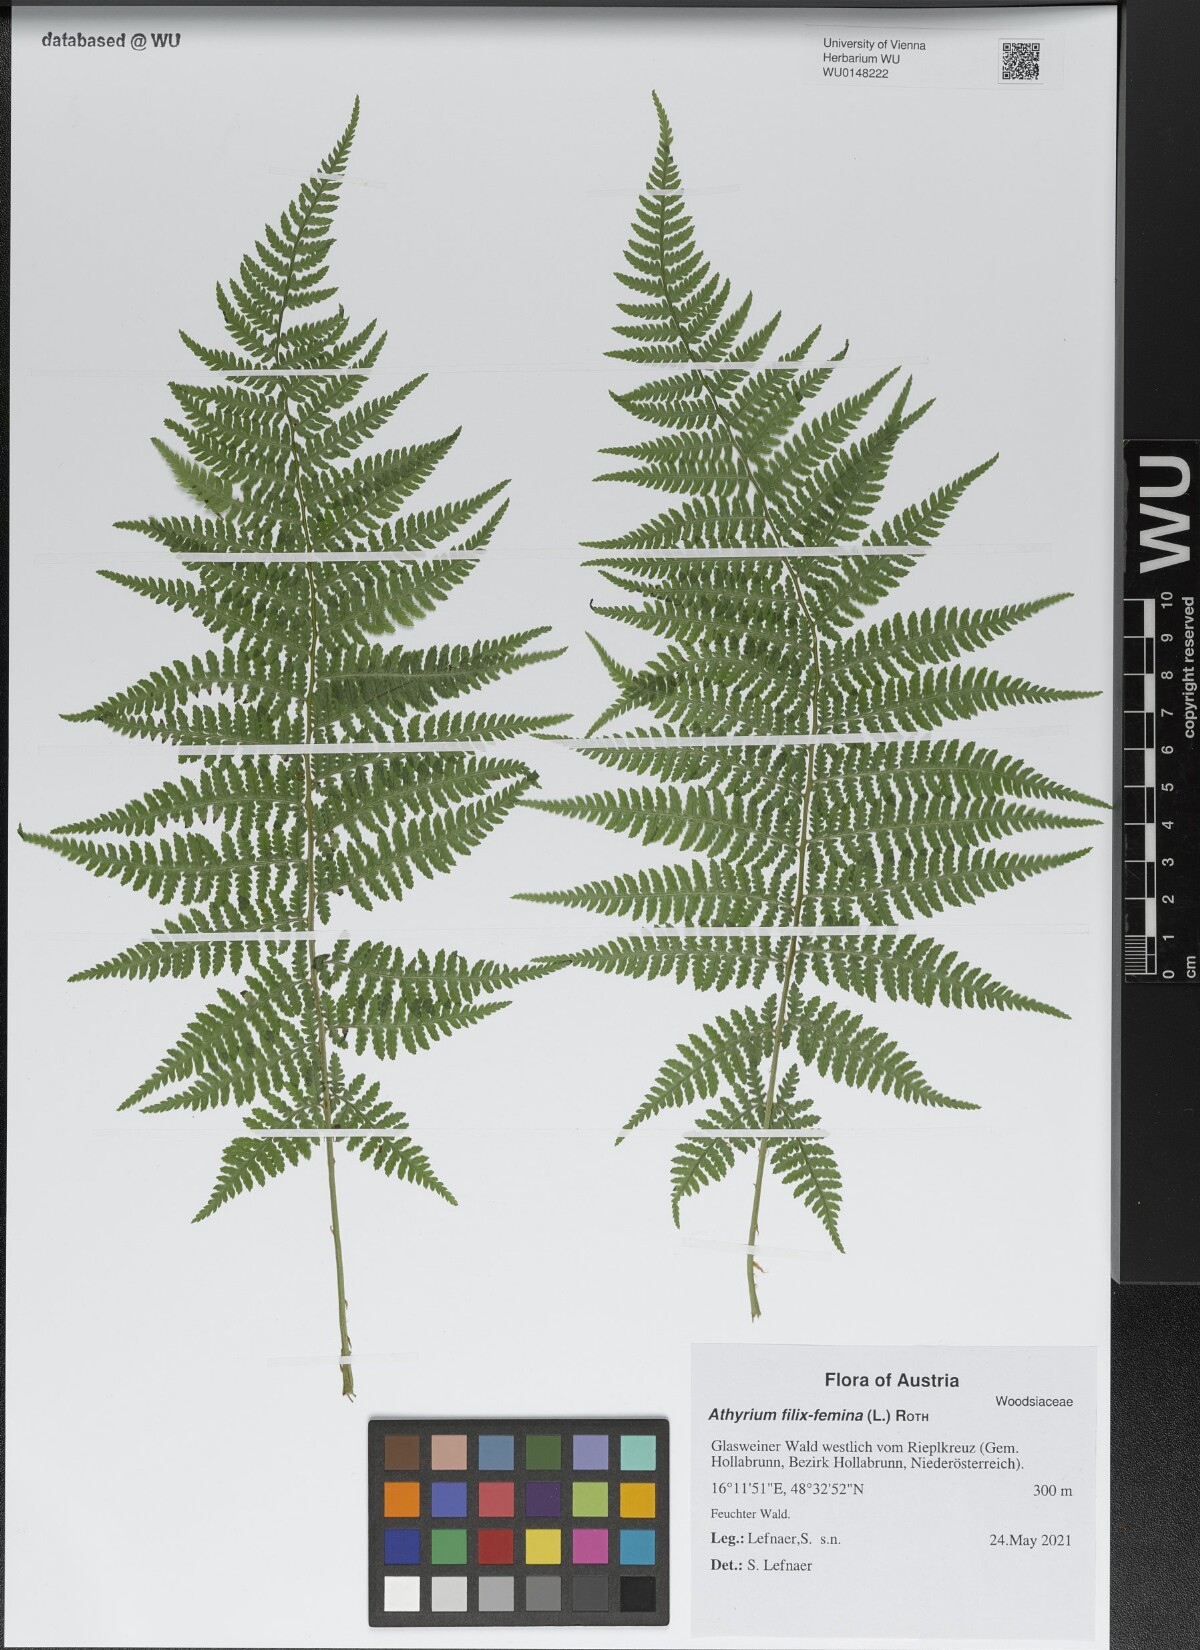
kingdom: Plantae
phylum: Tracheophyta
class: Polypodiopsida
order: Polypodiales
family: Athyriaceae
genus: Athyrium
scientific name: Athyrium filix-femina
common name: Lady fern
